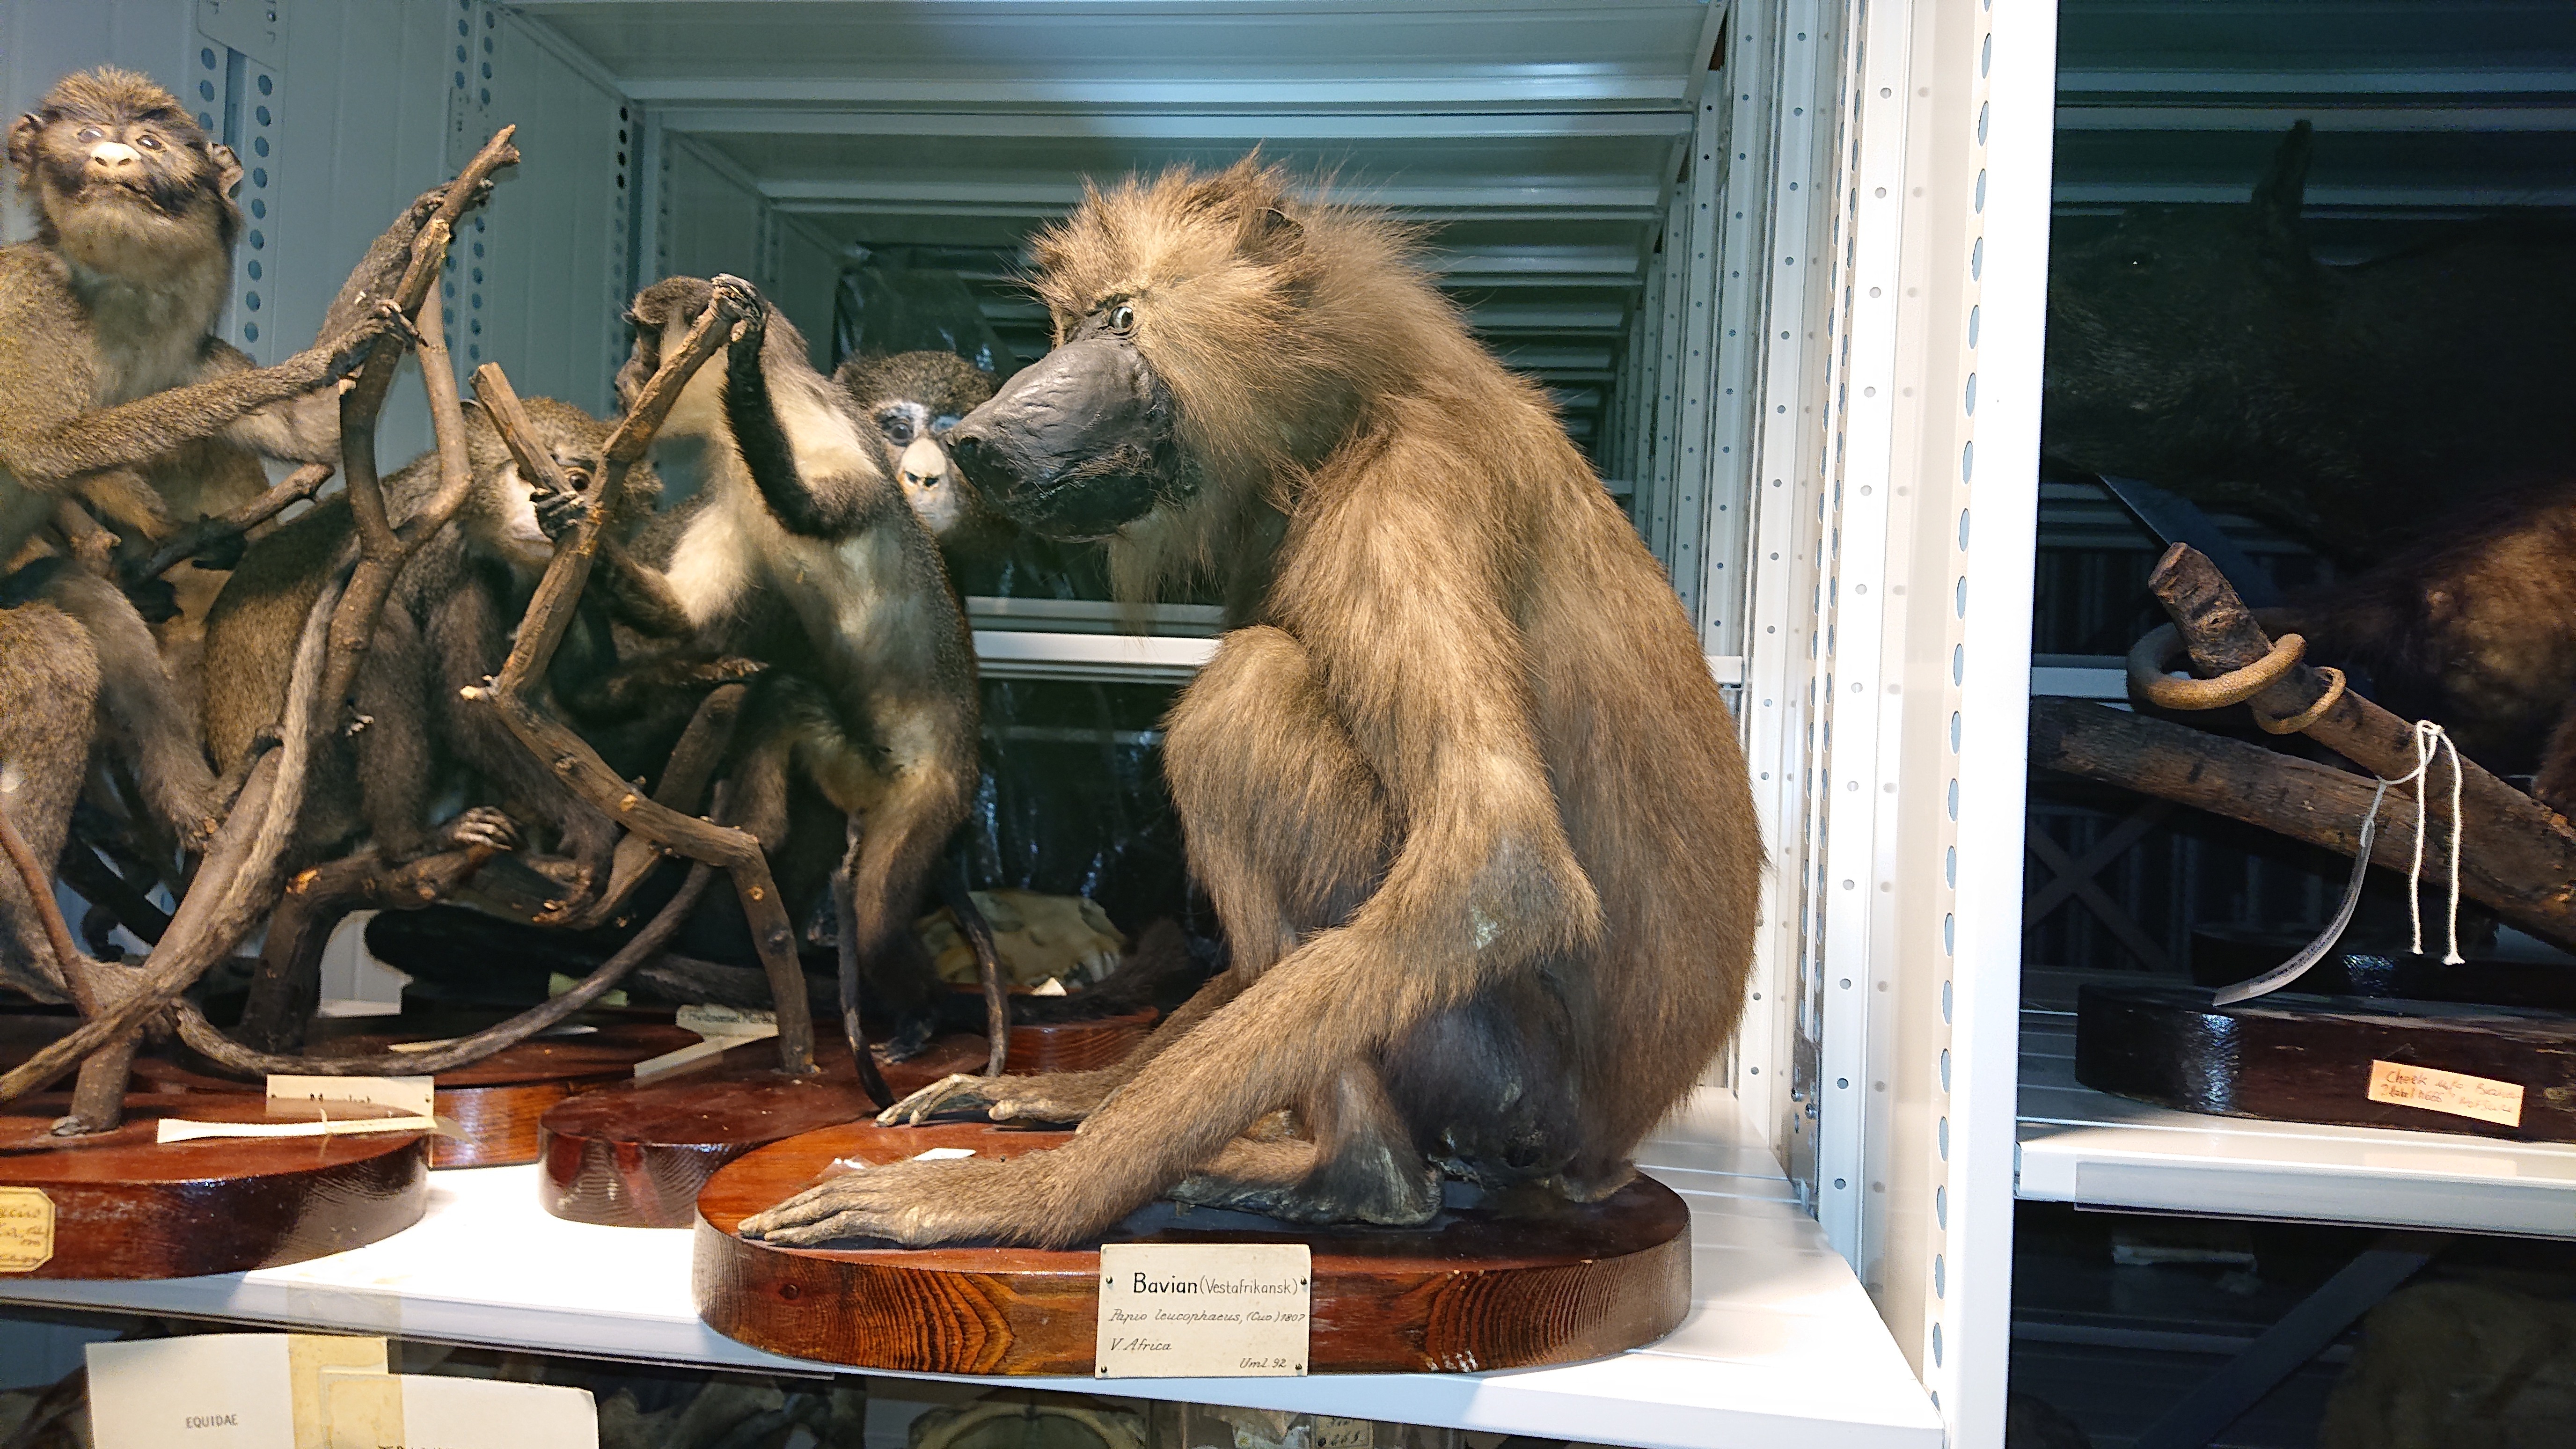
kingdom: Animalia
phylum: Chordata
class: Mammalia
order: Primates
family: Cercopithecidae
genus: Mandrillus
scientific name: Mandrillus leucophaeus
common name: Drill
